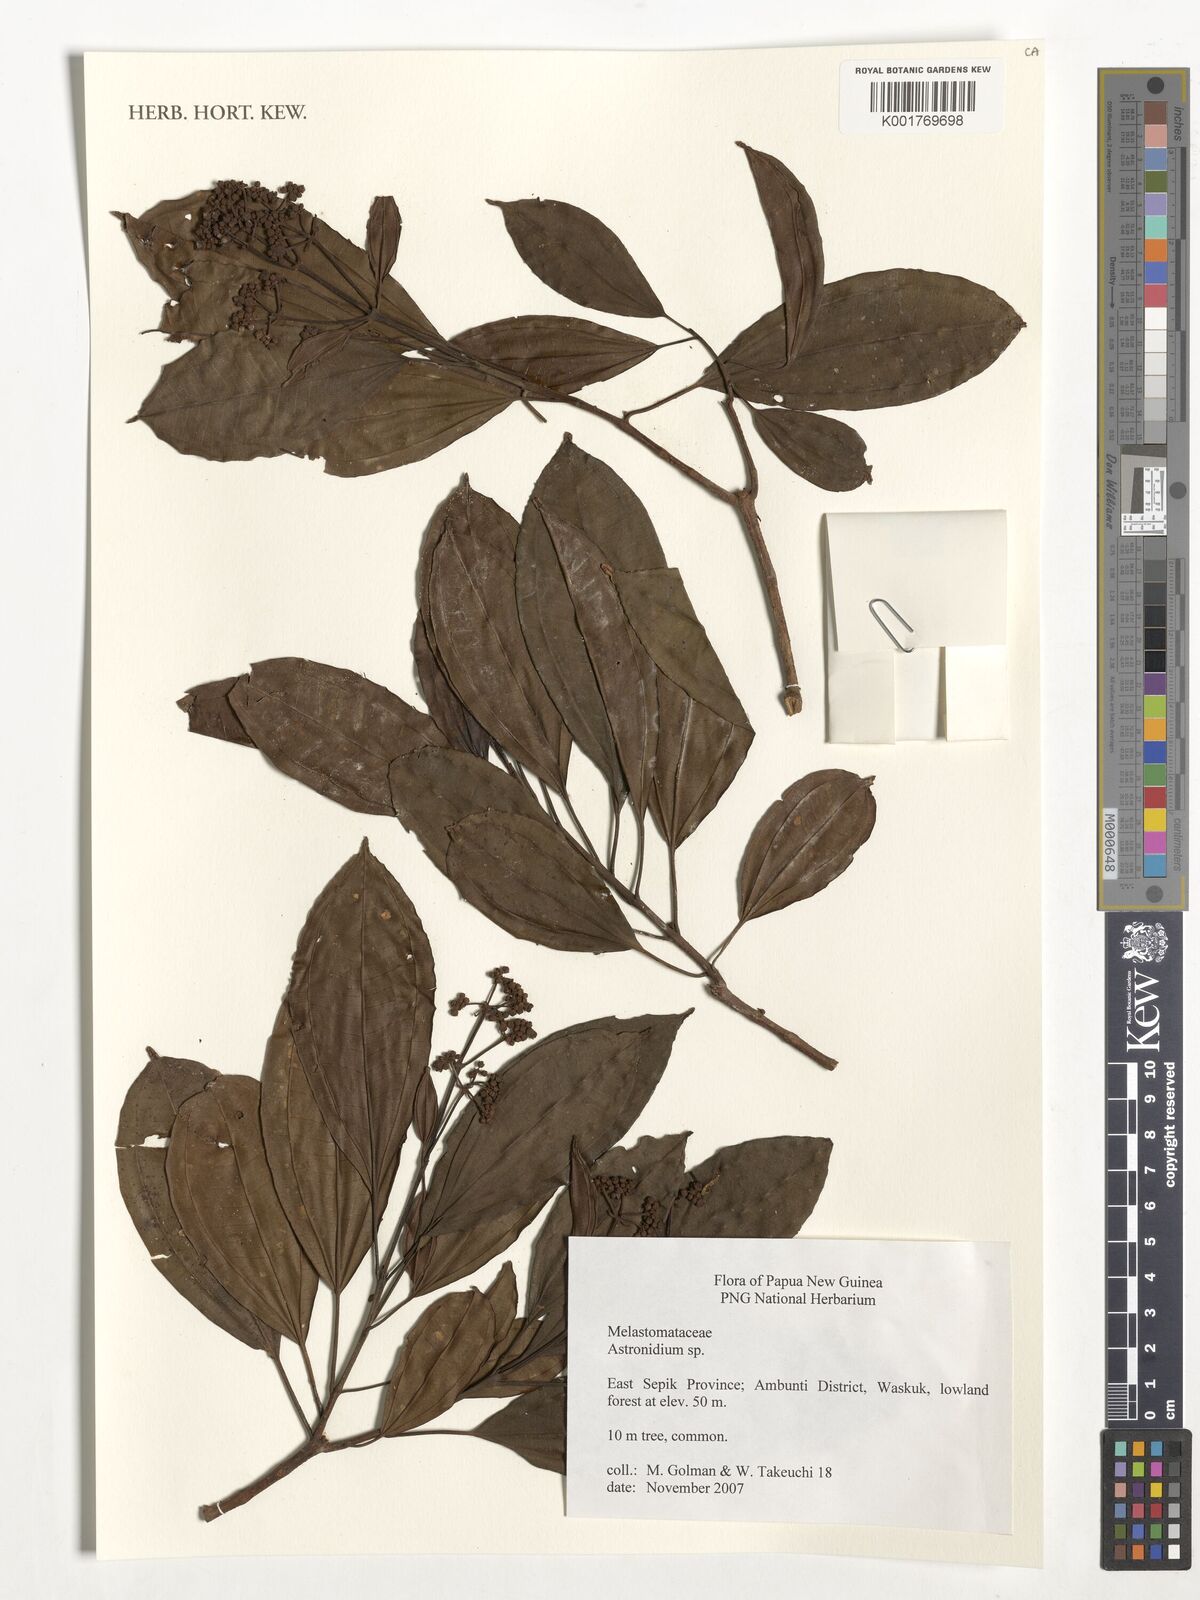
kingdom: Plantae
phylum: Tracheophyta
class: Magnoliopsida
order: Myrtales
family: Melastomataceae
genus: Astronidium
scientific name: Astronidium
